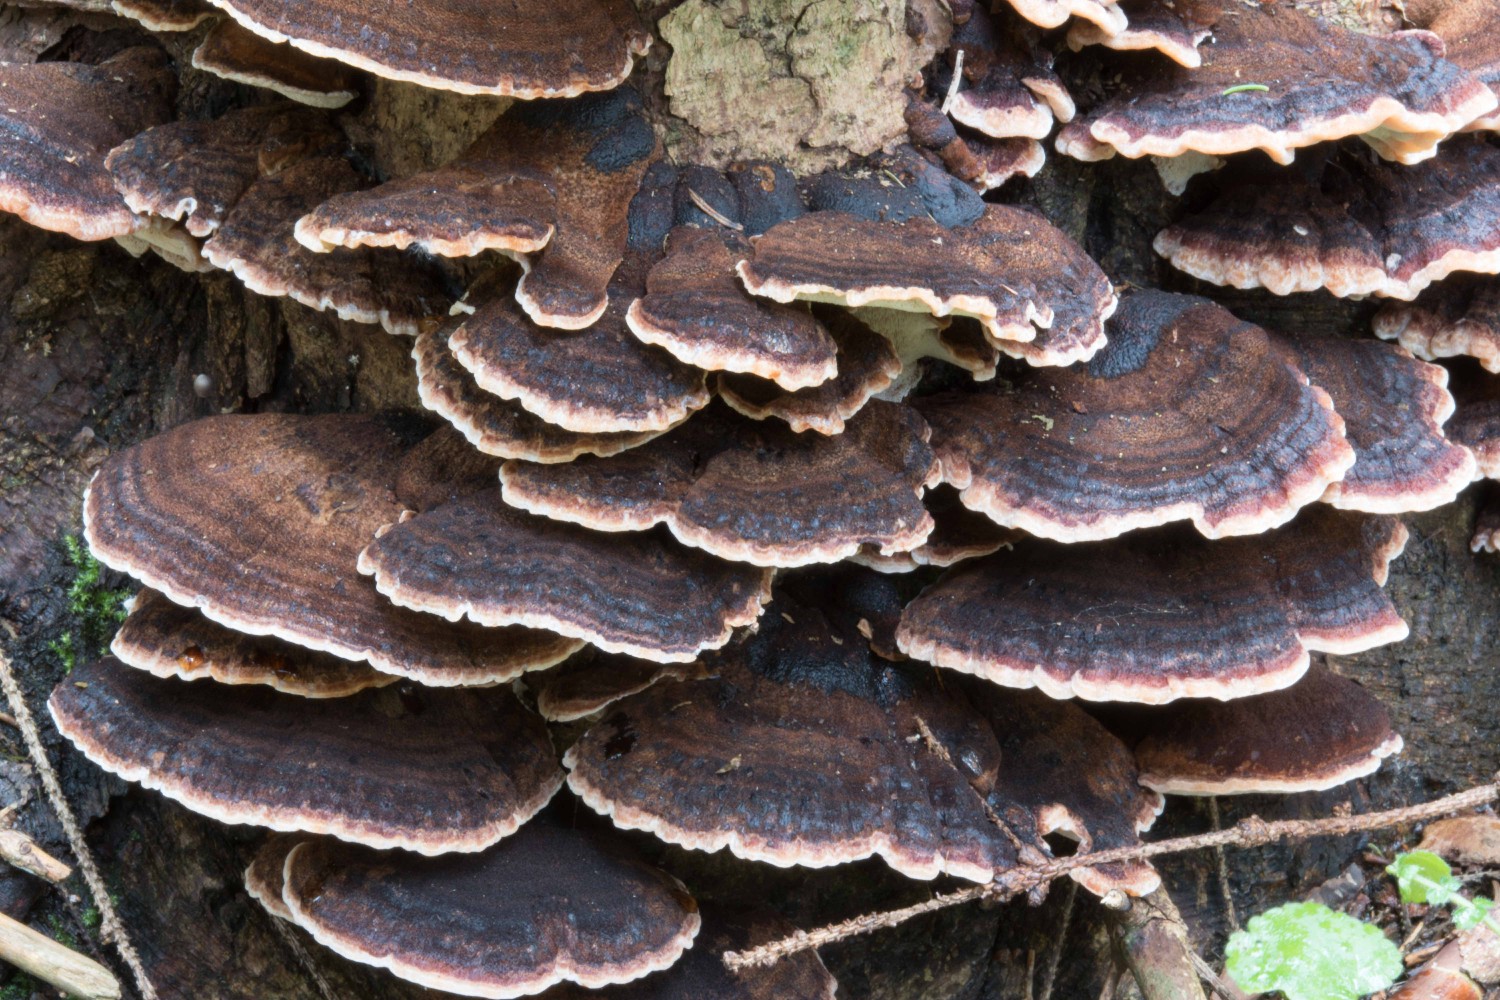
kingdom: Fungi
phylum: Basidiomycota
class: Agaricomycetes
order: Polyporales
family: Ischnodermataceae
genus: Ischnoderma
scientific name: Ischnoderma benzoinum
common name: gran-tjæreporesvamp
